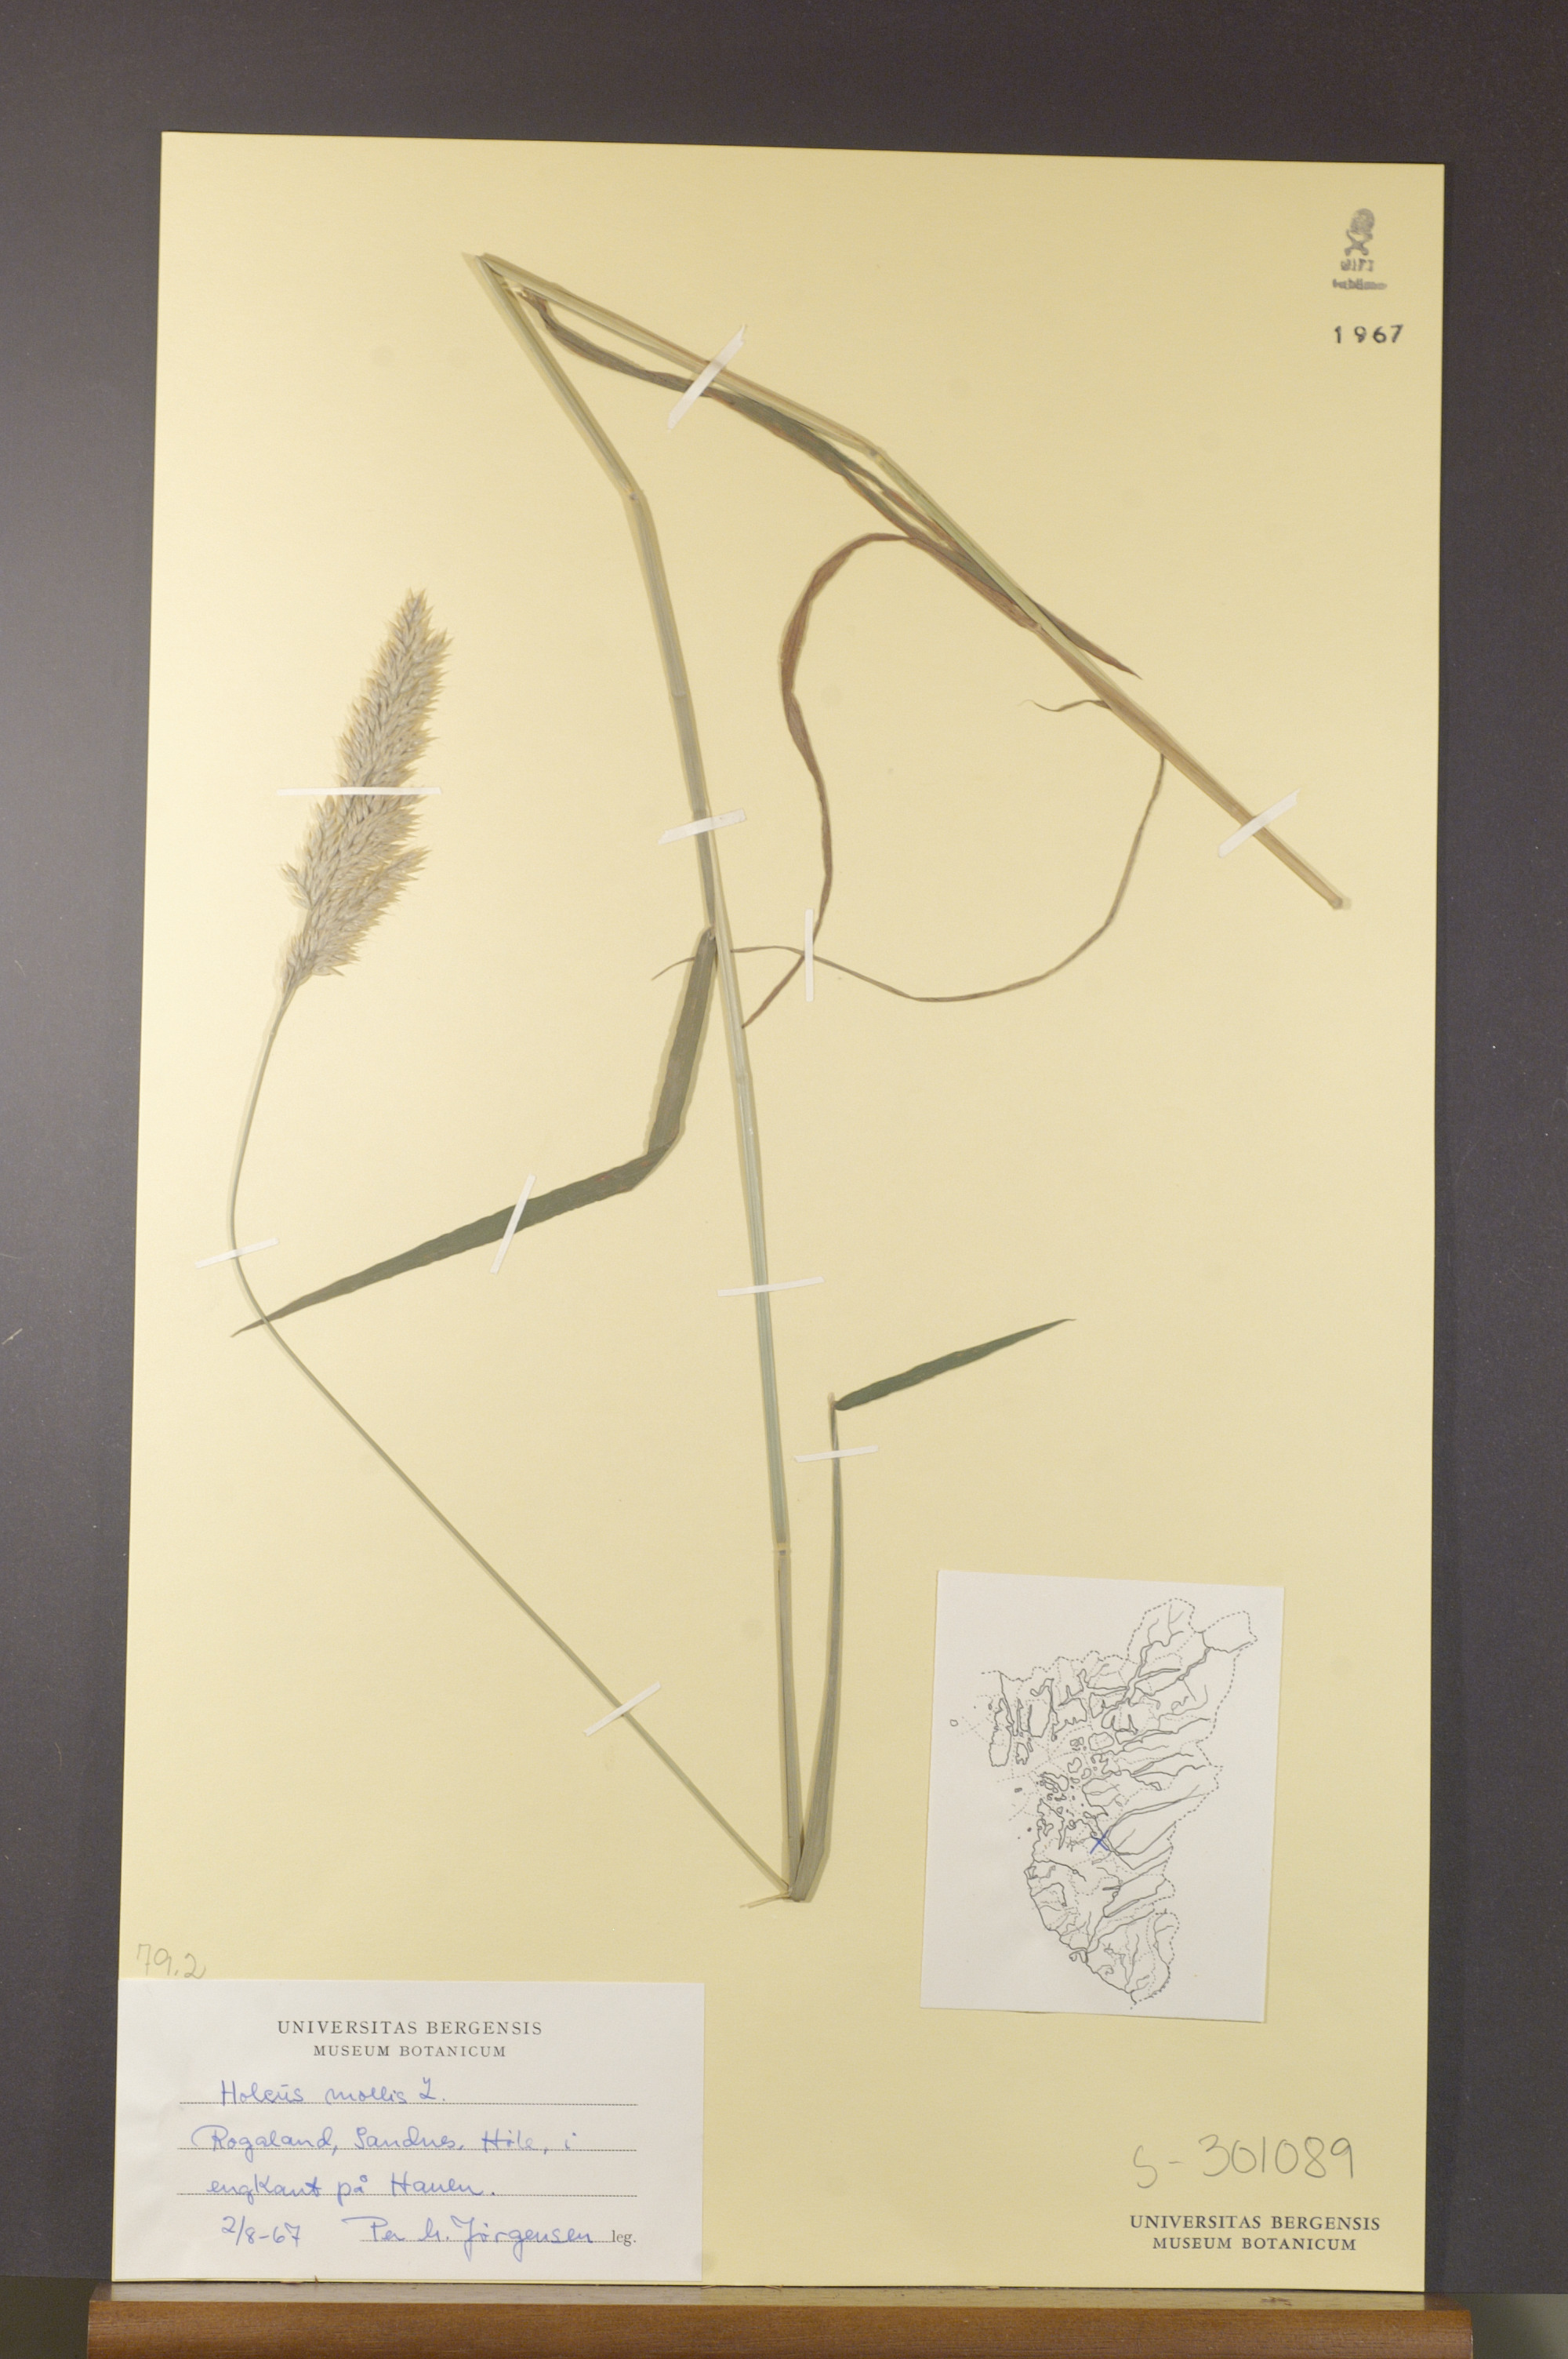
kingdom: Plantae
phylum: Tracheophyta
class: Liliopsida
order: Poales
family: Poaceae
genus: Holcus
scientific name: Holcus mollis
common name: Creeping velvetgrass
